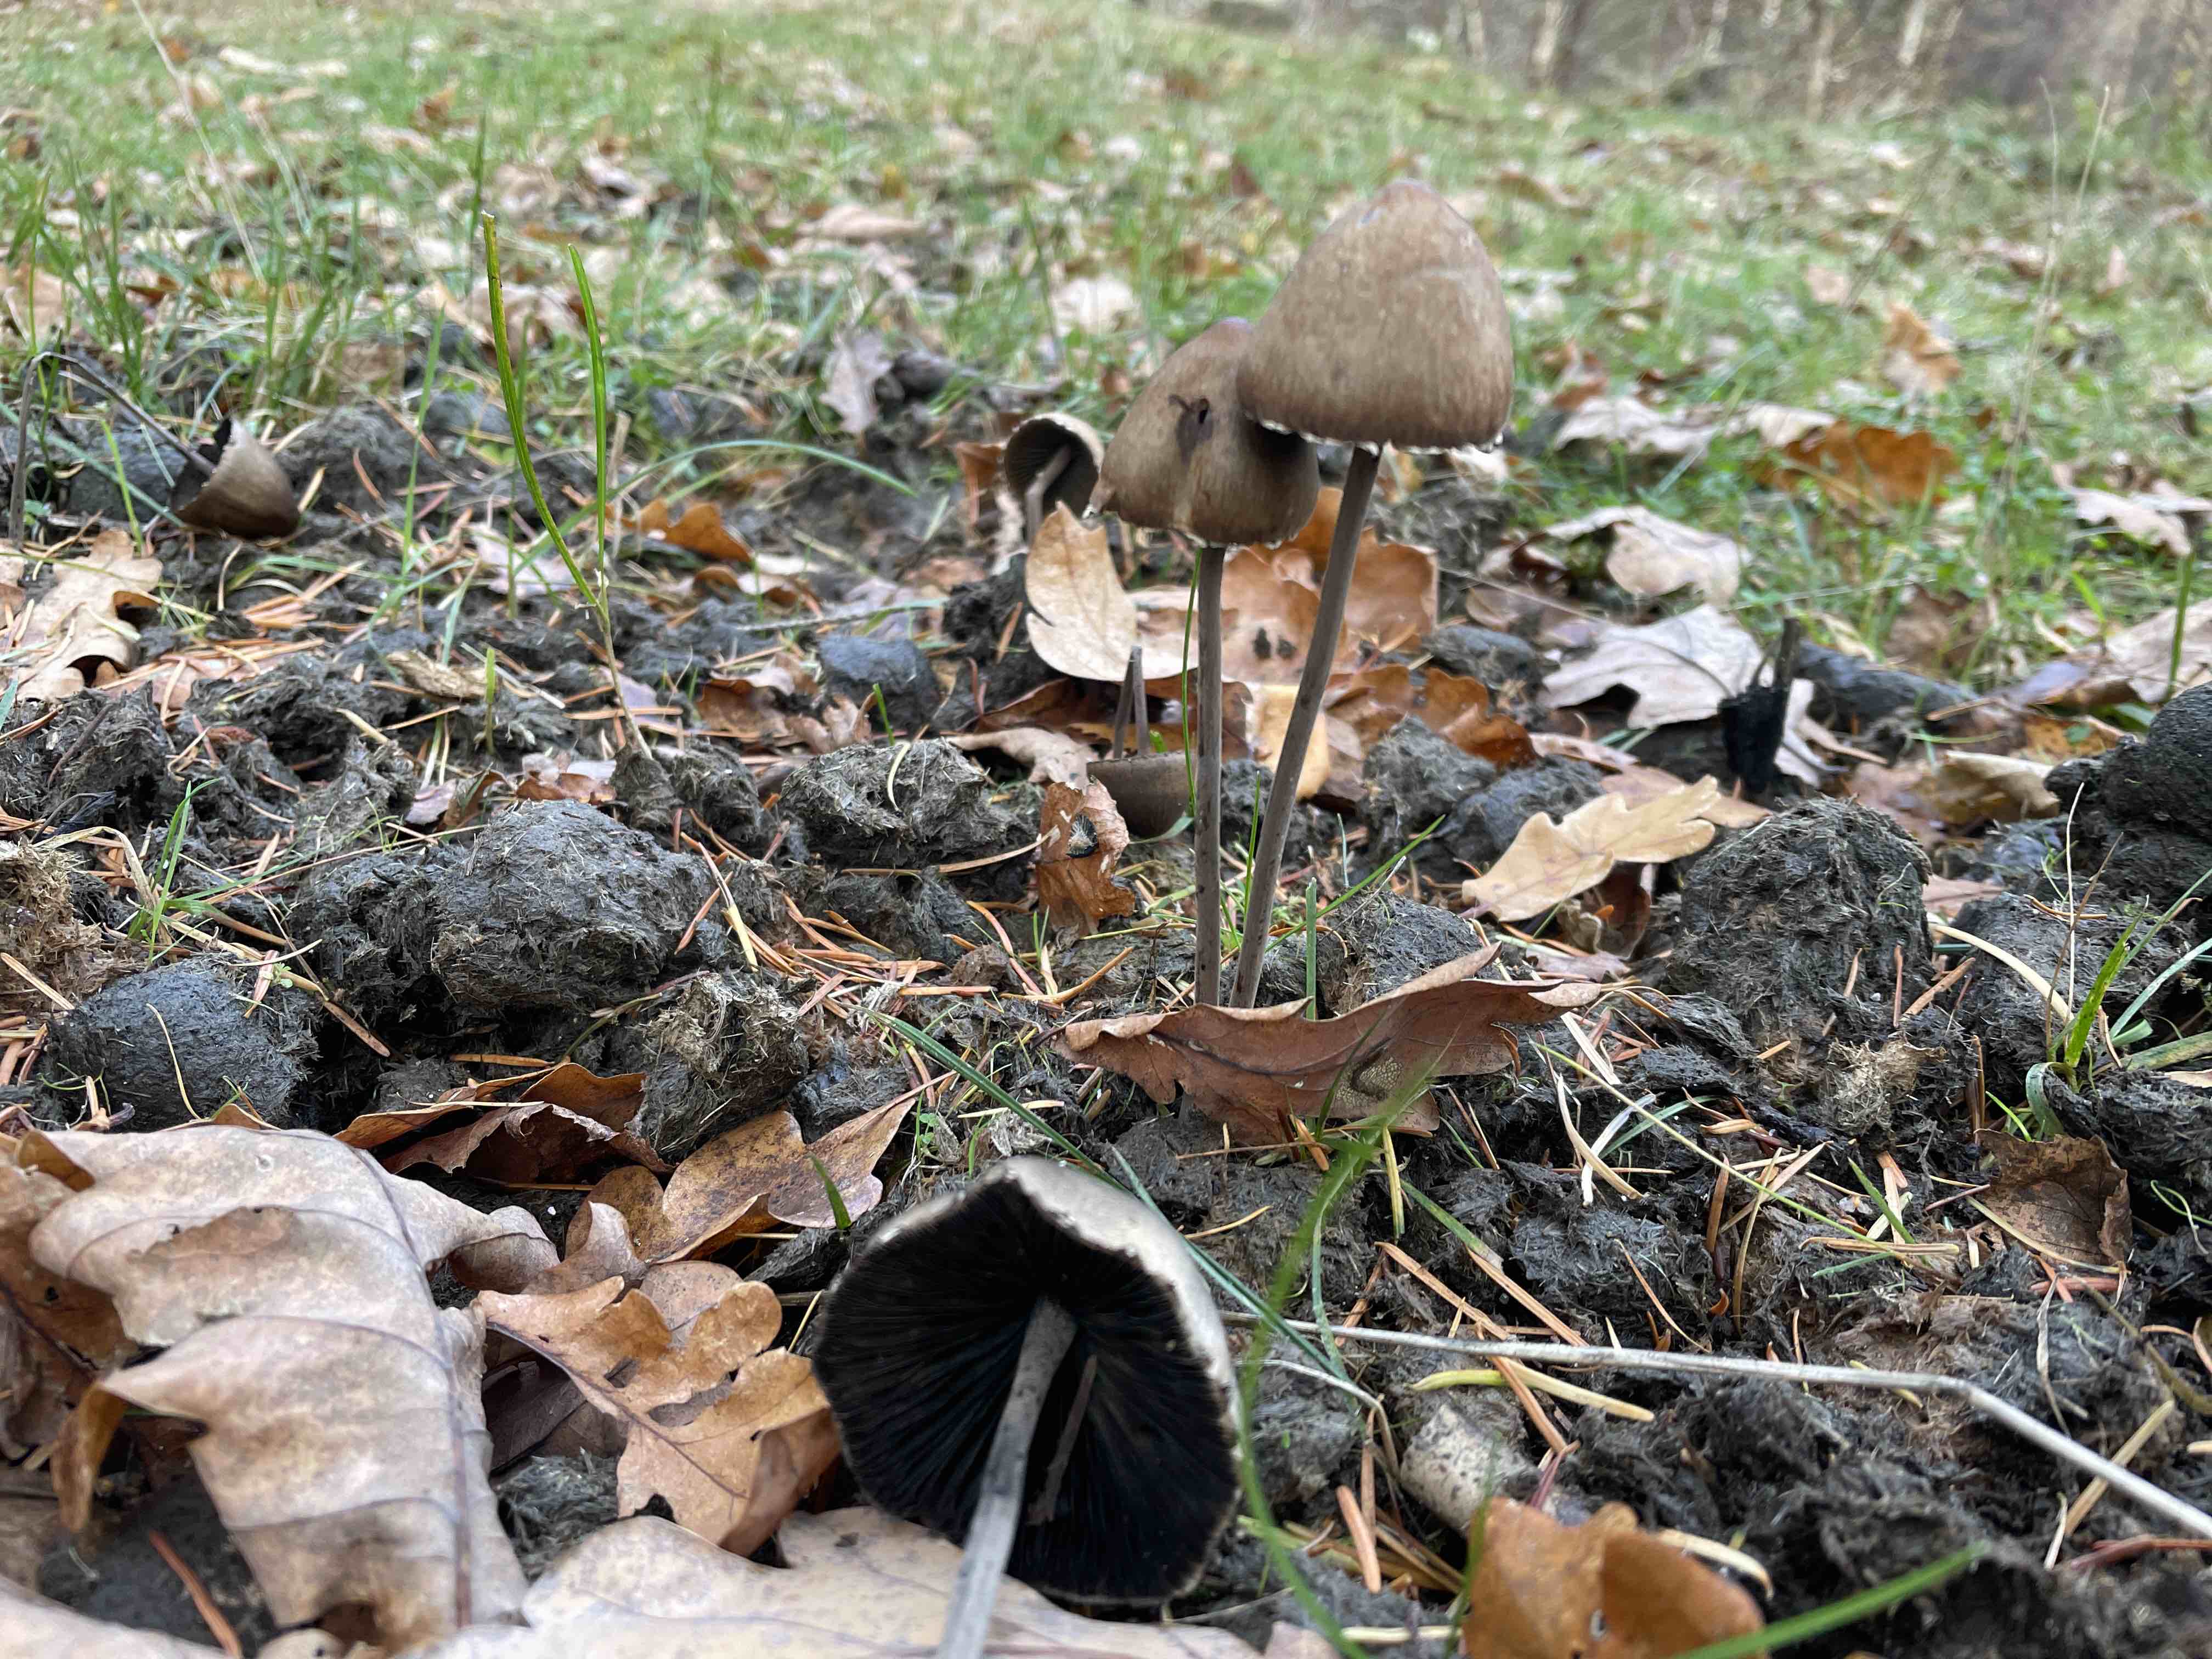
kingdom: Fungi
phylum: Basidiomycota
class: Agaricomycetes
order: Agaricales
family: Bolbitiaceae
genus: Panaeolus
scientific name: Panaeolus papilionaceus
